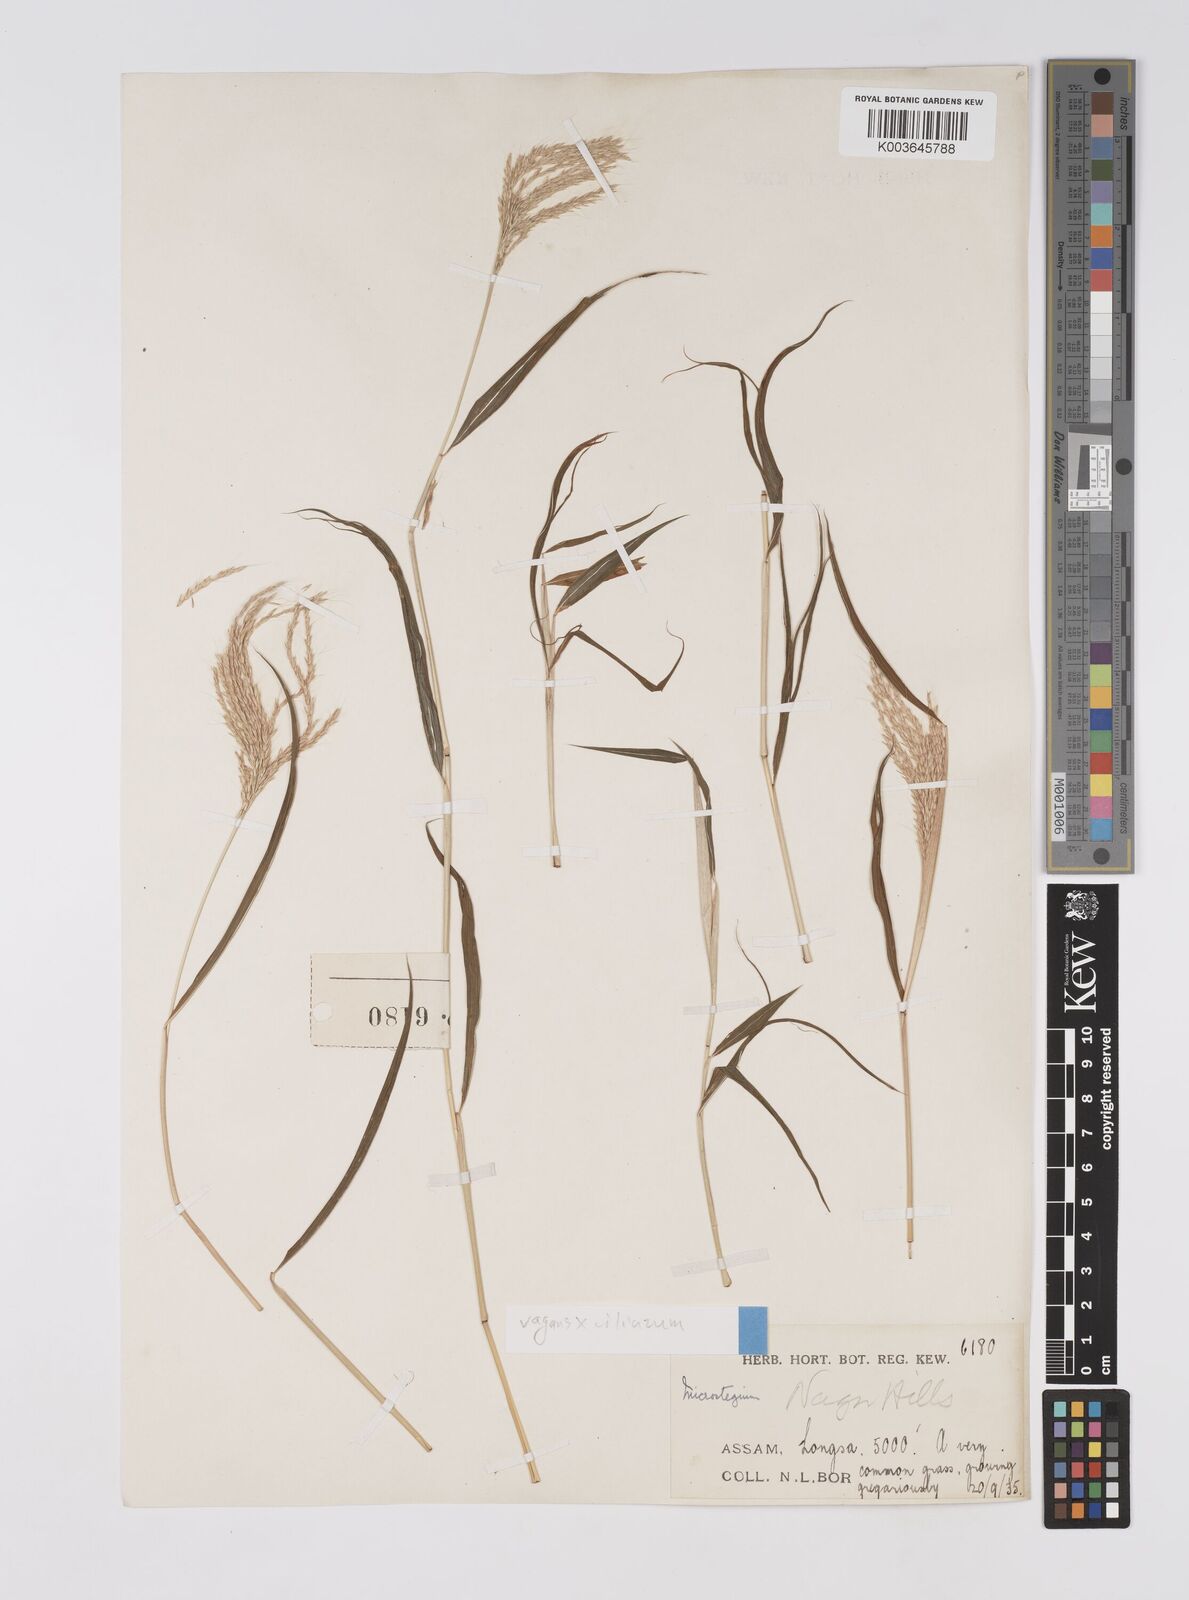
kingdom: Plantae
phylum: Tracheophyta
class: Liliopsida
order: Poales
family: Poaceae
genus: Microstegium
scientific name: Microstegium fasciculatum
